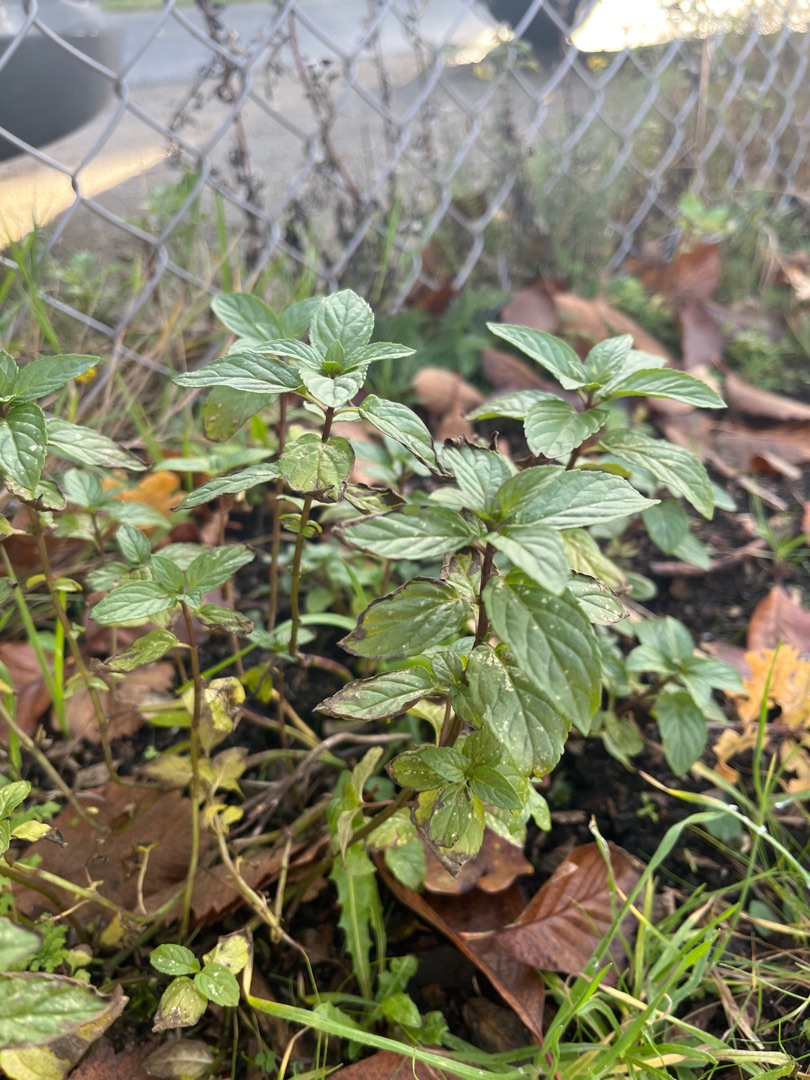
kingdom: Plantae
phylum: Tracheophyta
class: Magnoliopsida
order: Lamiales
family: Lamiaceae
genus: Mentha
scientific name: Mentha aquatica
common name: Vand-mynte
